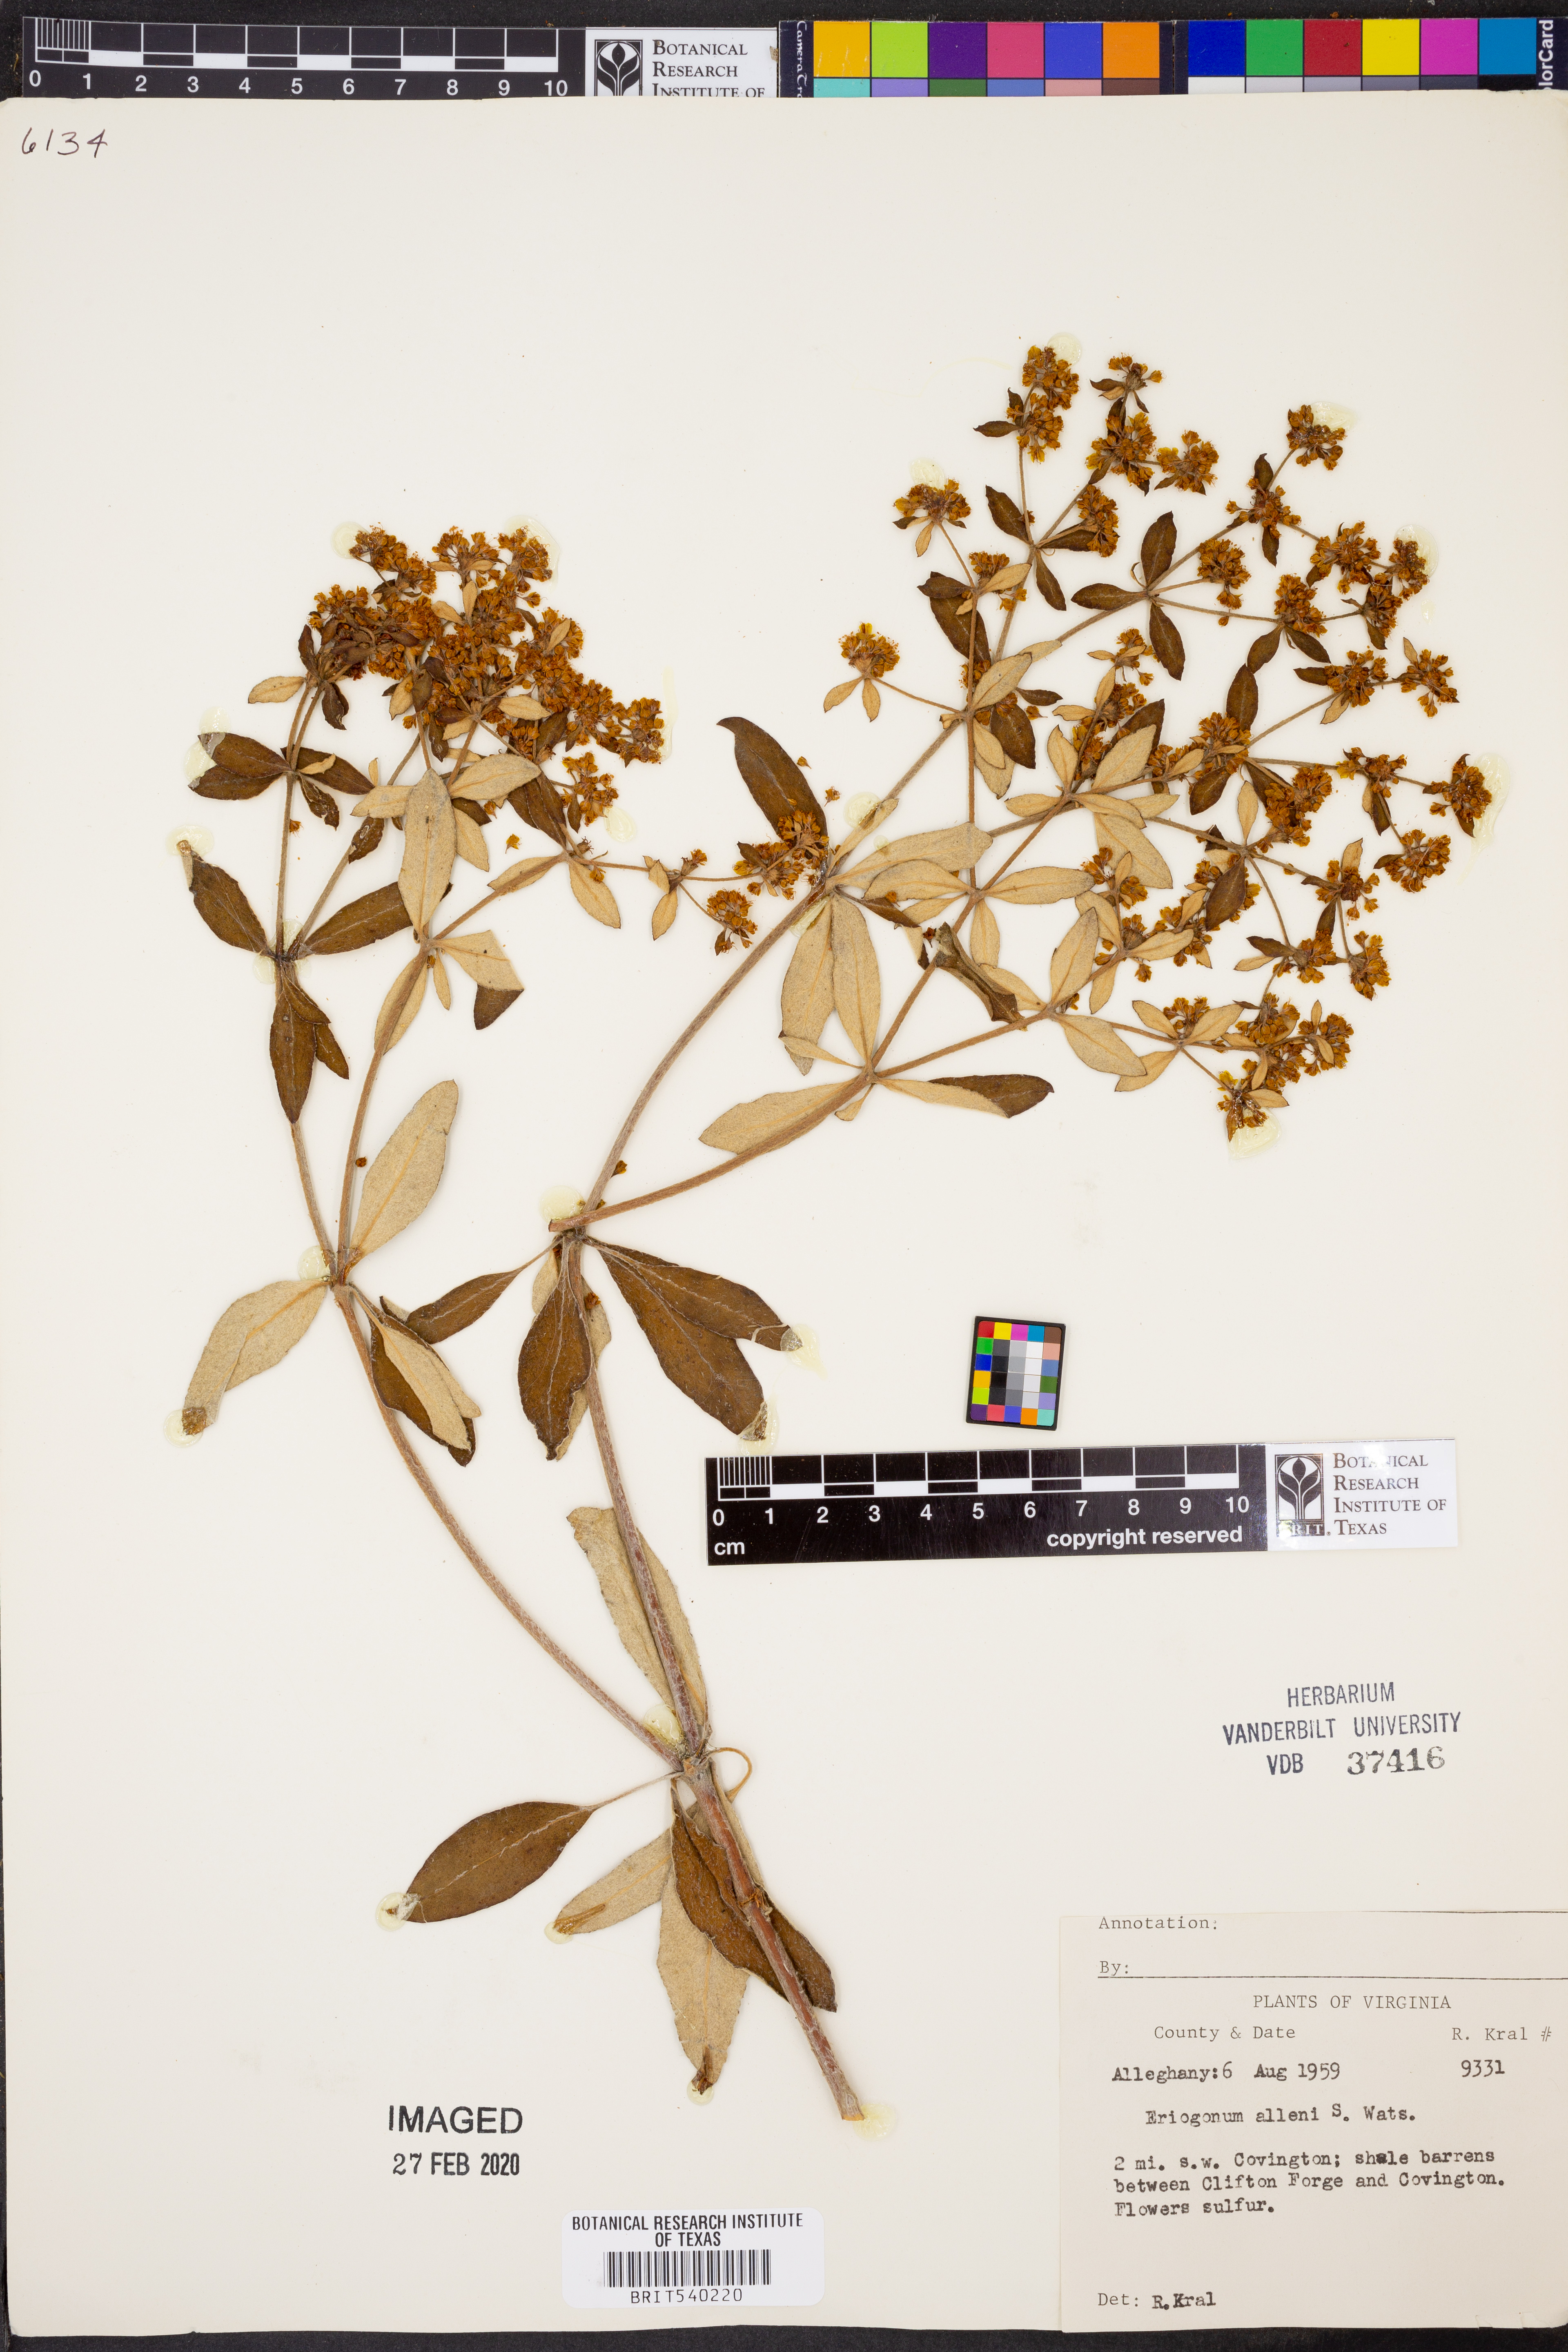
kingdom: Plantae
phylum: Tracheophyta
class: Magnoliopsida
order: Caryophyllales
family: Polygonaceae
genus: Eriogonum
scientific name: Eriogonum allenii
